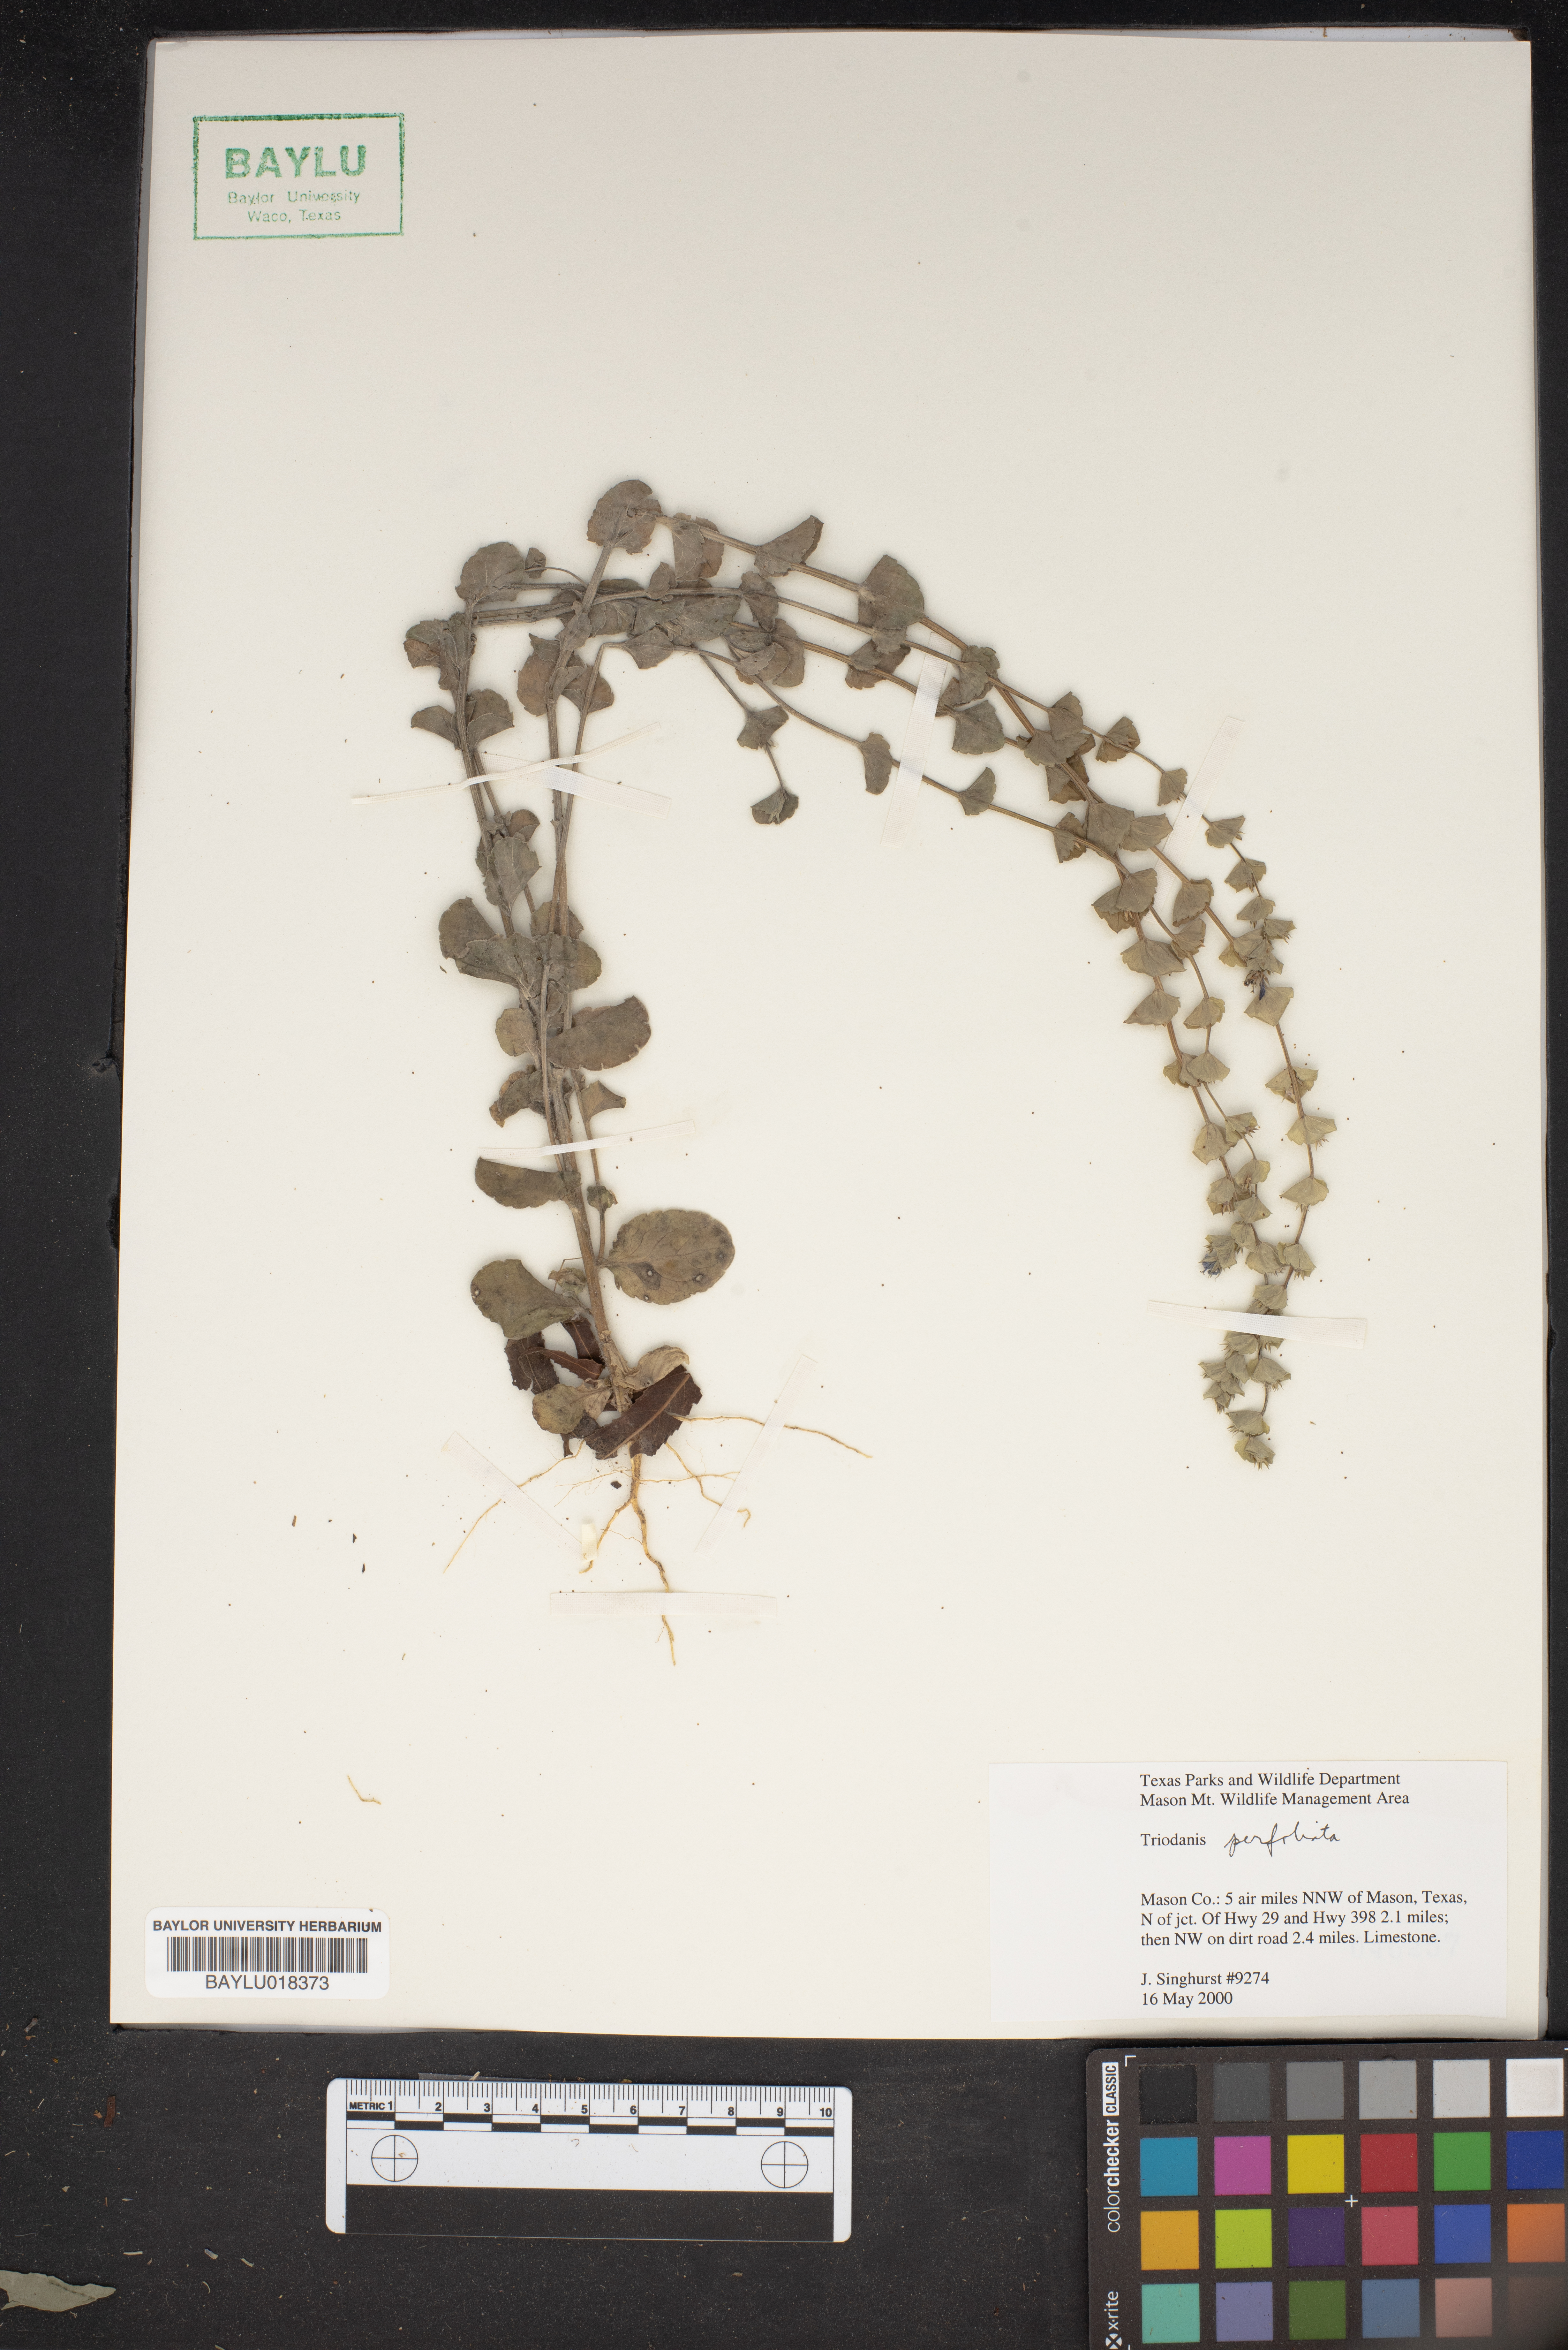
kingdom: Plantae
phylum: Tracheophyta
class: Magnoliopsida
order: Asterales
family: Campanulaceae
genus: Triodanis
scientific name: Triodanis perfoliata
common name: Clasping venus' looking-glass
